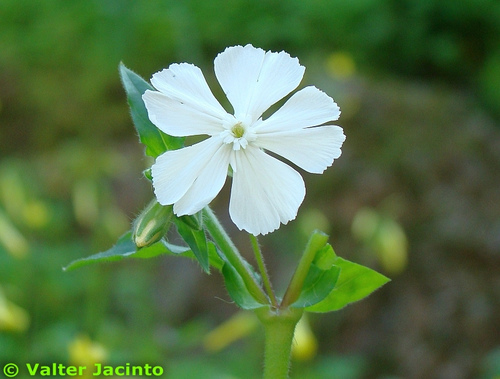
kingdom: Plantae
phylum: Tracheophyta
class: Magnoliopsida
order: Caryophyllales
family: Caryophyllaceae
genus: Silene
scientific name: Silene latifolia
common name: White campion
